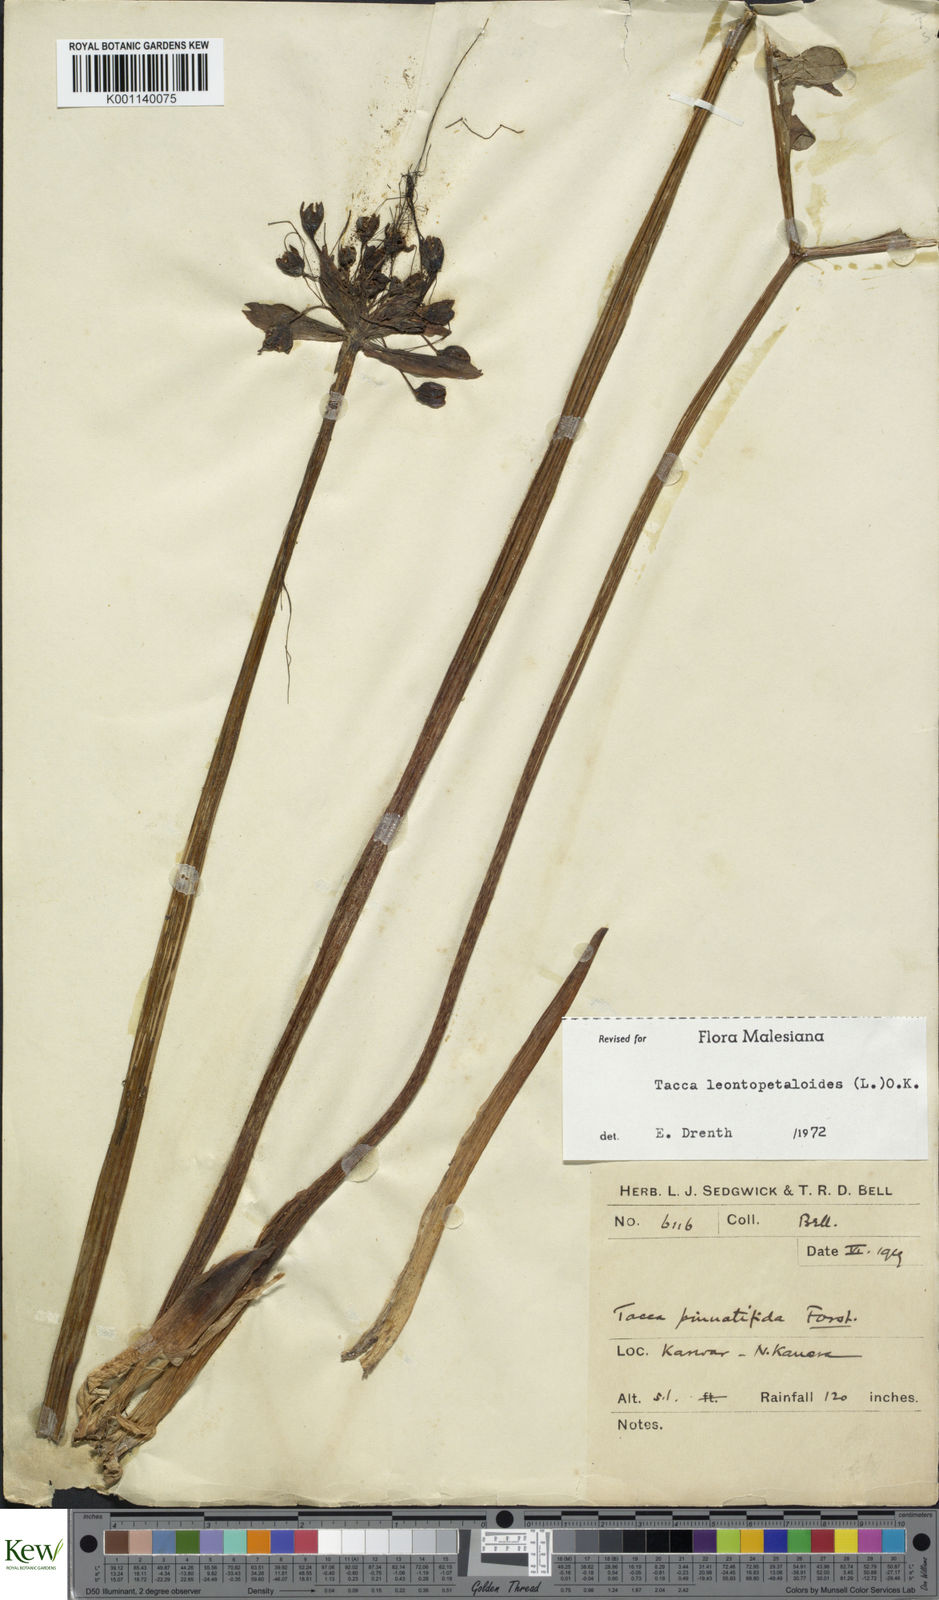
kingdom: Plantae
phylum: Tracheophyta
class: Liliopsida
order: Dioscoreales
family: Dioscoreaceae
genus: Tacca
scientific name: Tacca leontopetaloides
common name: Arrowroot
